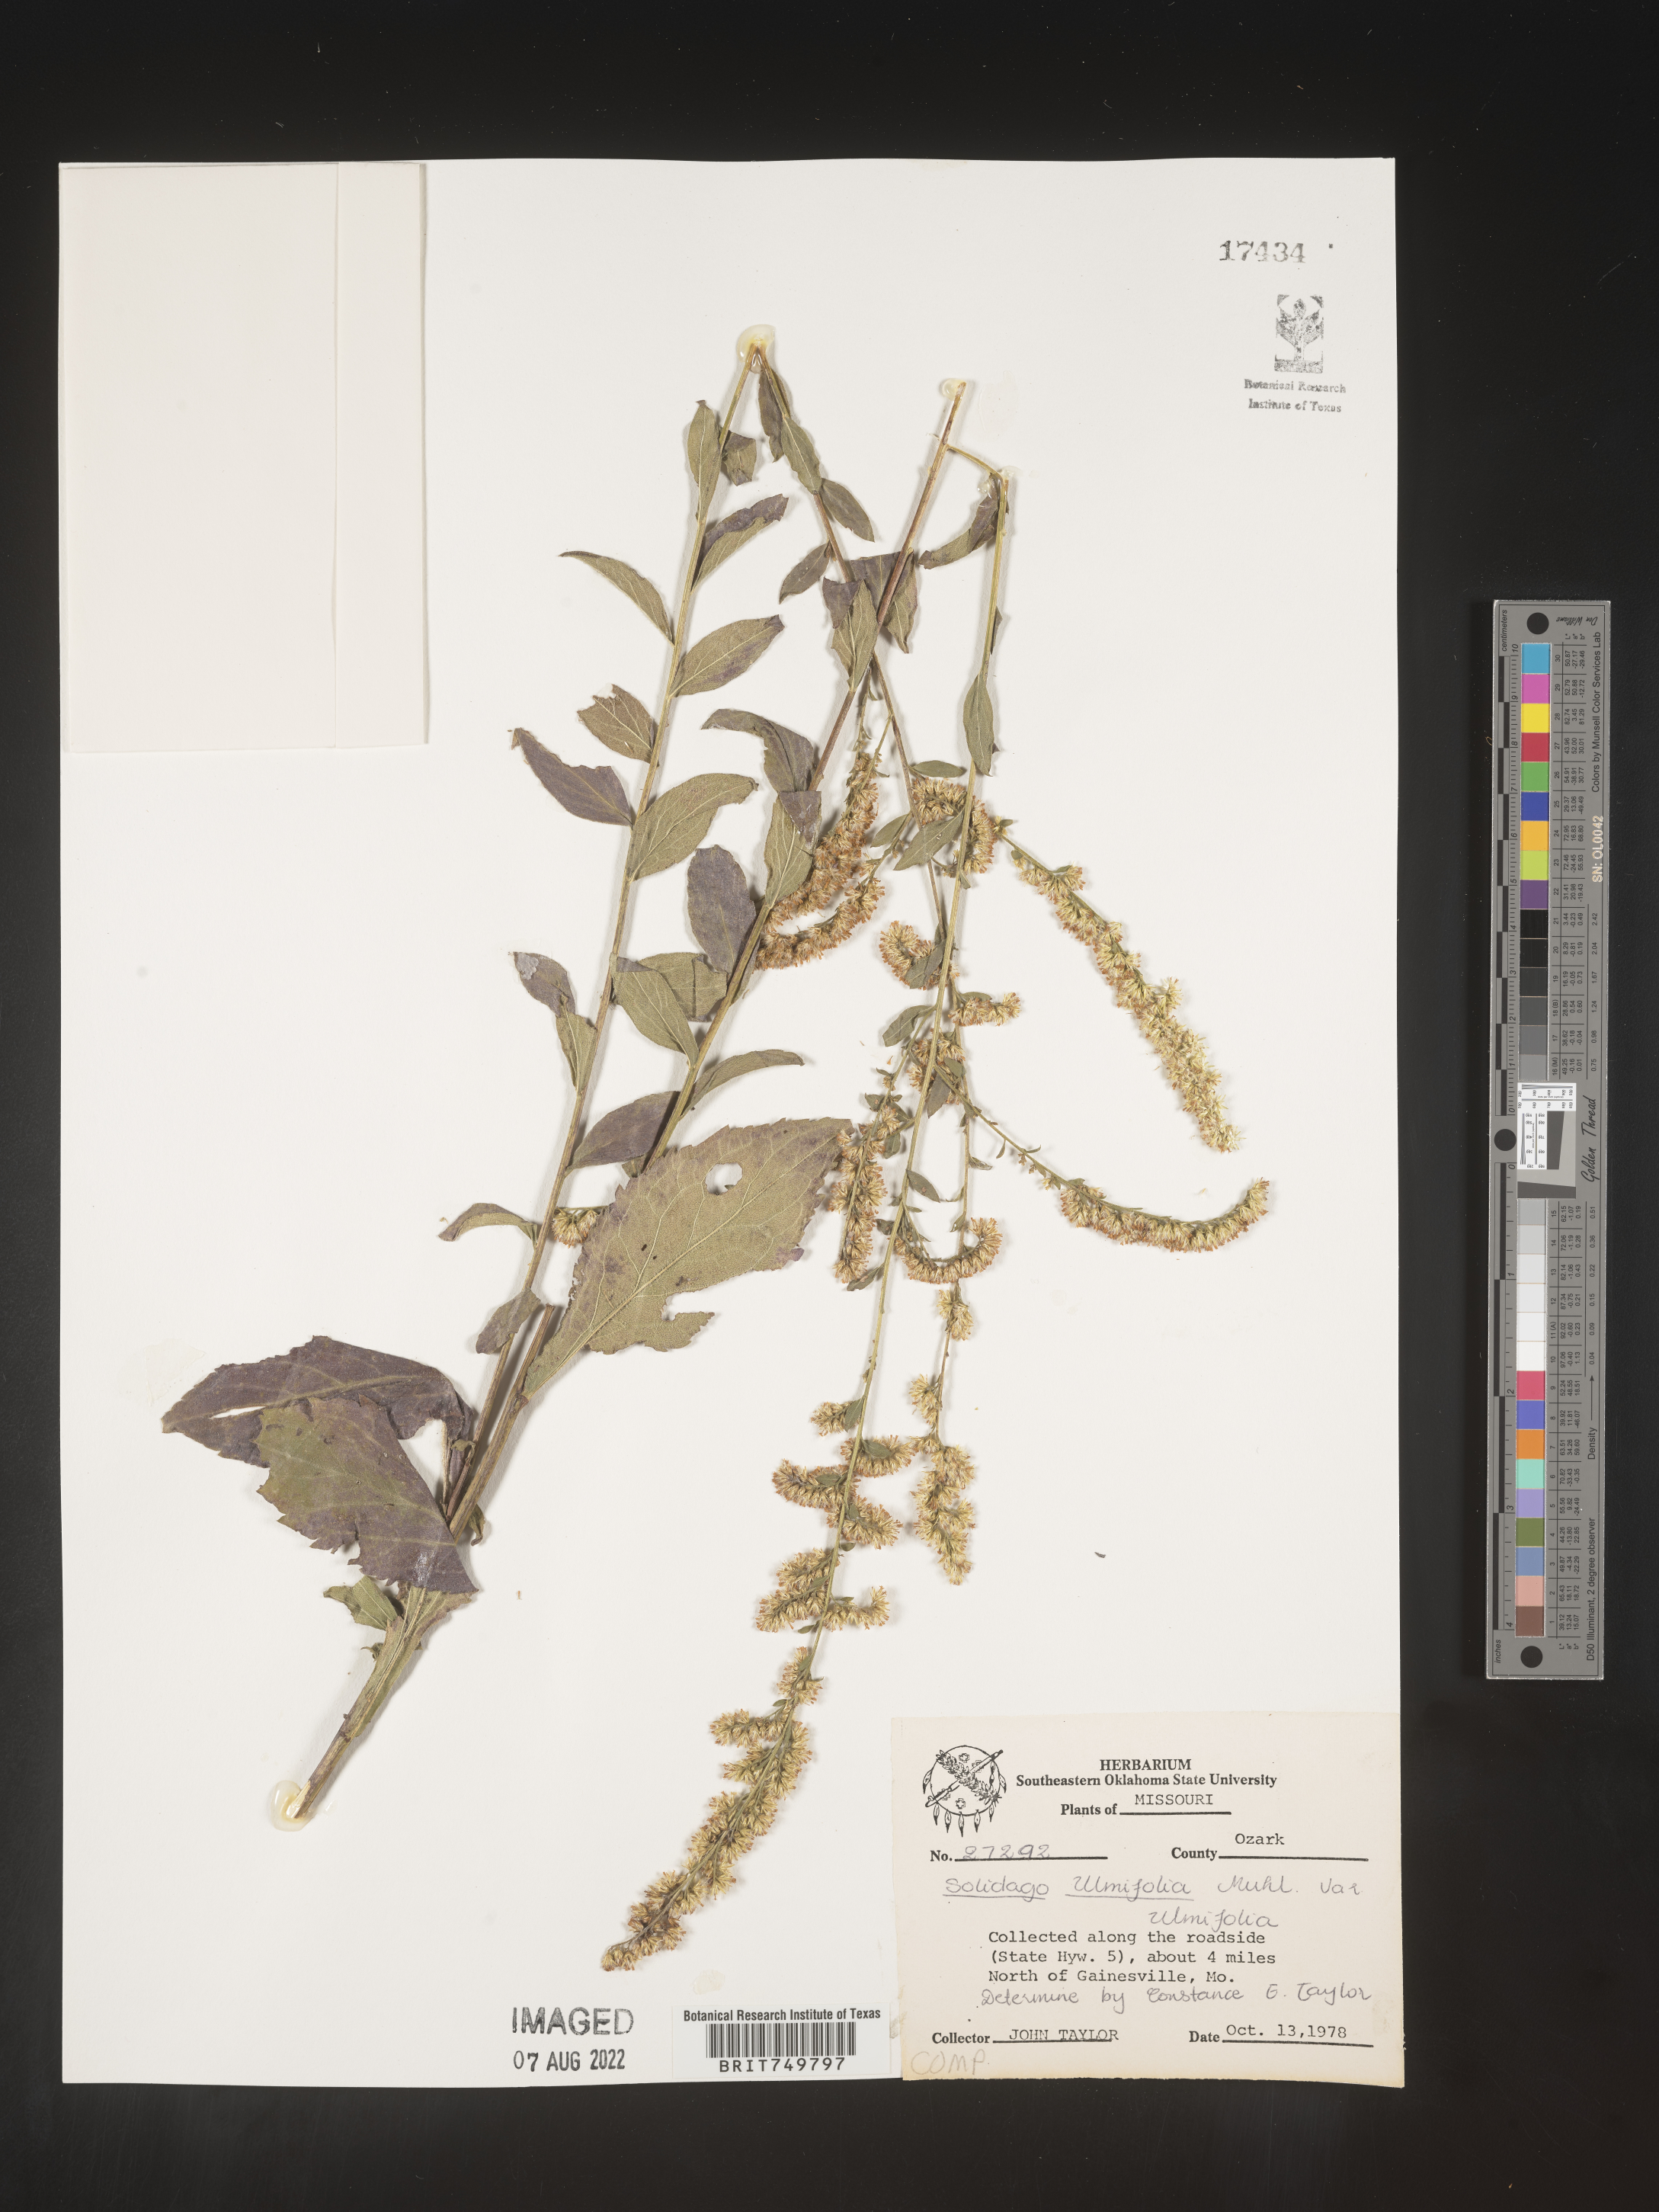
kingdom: Plantae
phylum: Tracheophyta
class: Magnoliopsida
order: Asterales
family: Asteraceae
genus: Solidago
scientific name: Solidago ulmifolia
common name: Elm-leaf goldenrod
